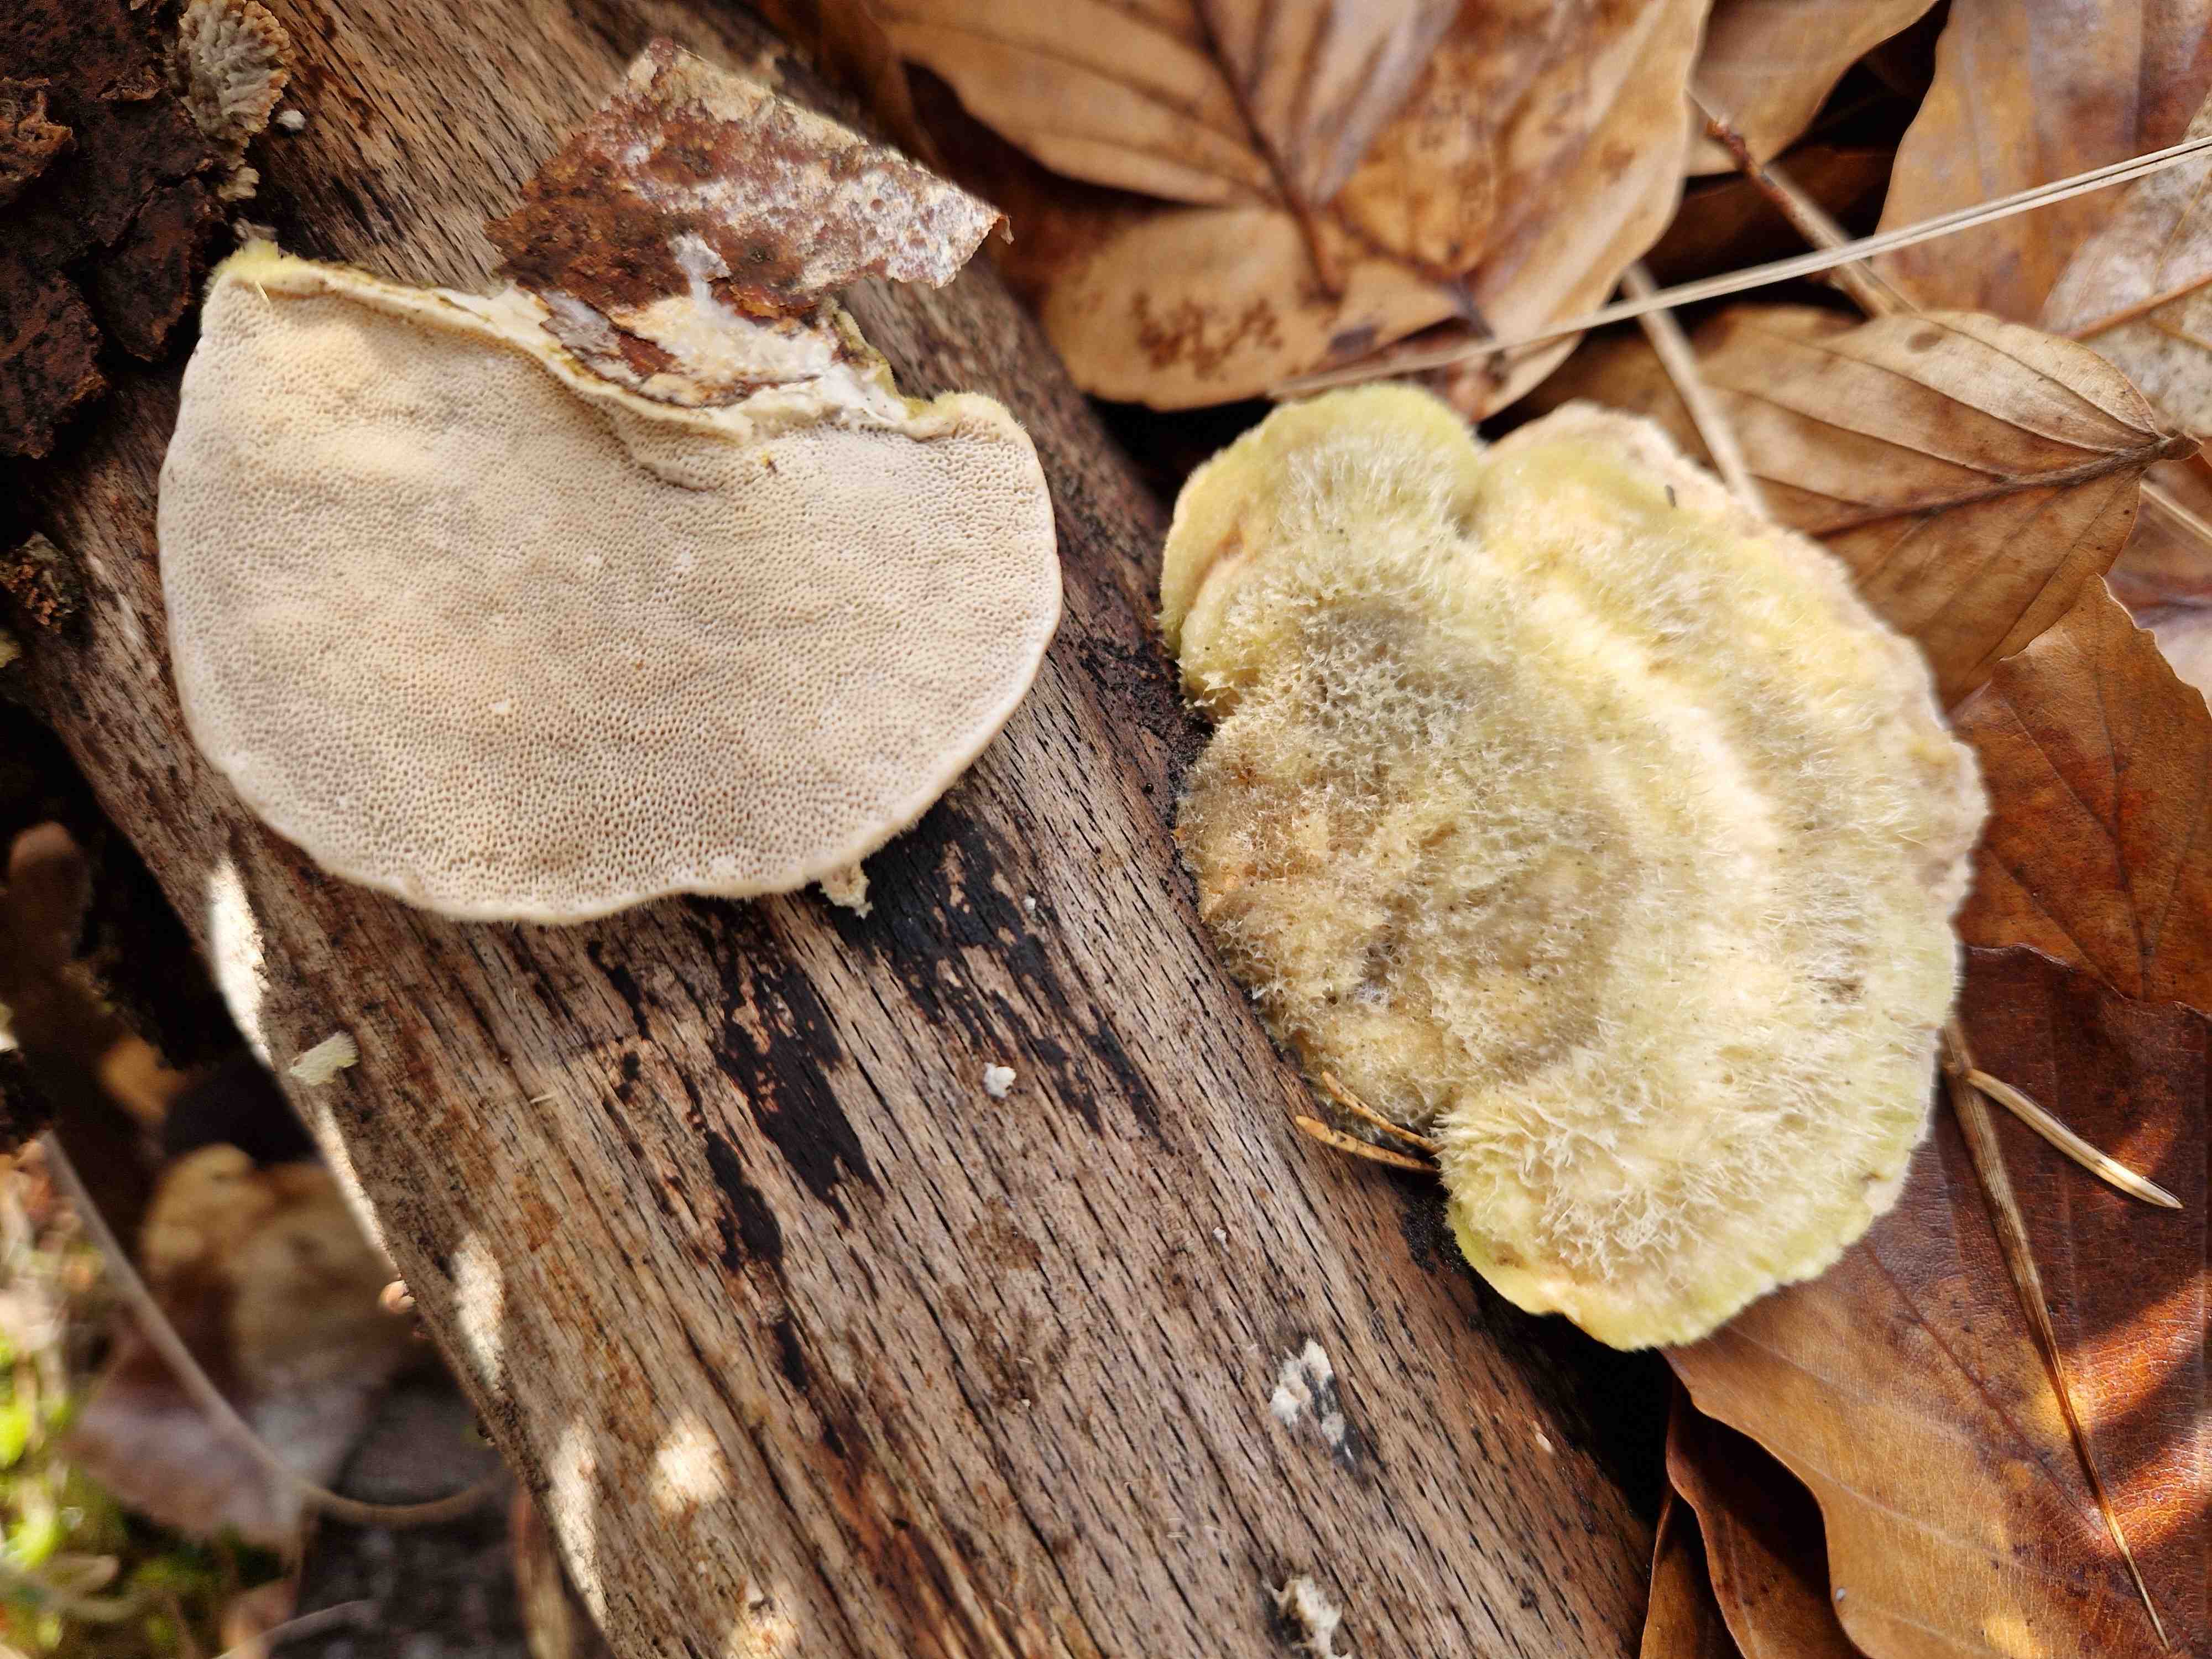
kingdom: Fungi
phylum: Basidiomycota
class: Agaricomycetes
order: Russulales
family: Stereaceae
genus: Stereum
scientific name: Stereum hirsutum
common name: håret lædersvamp
